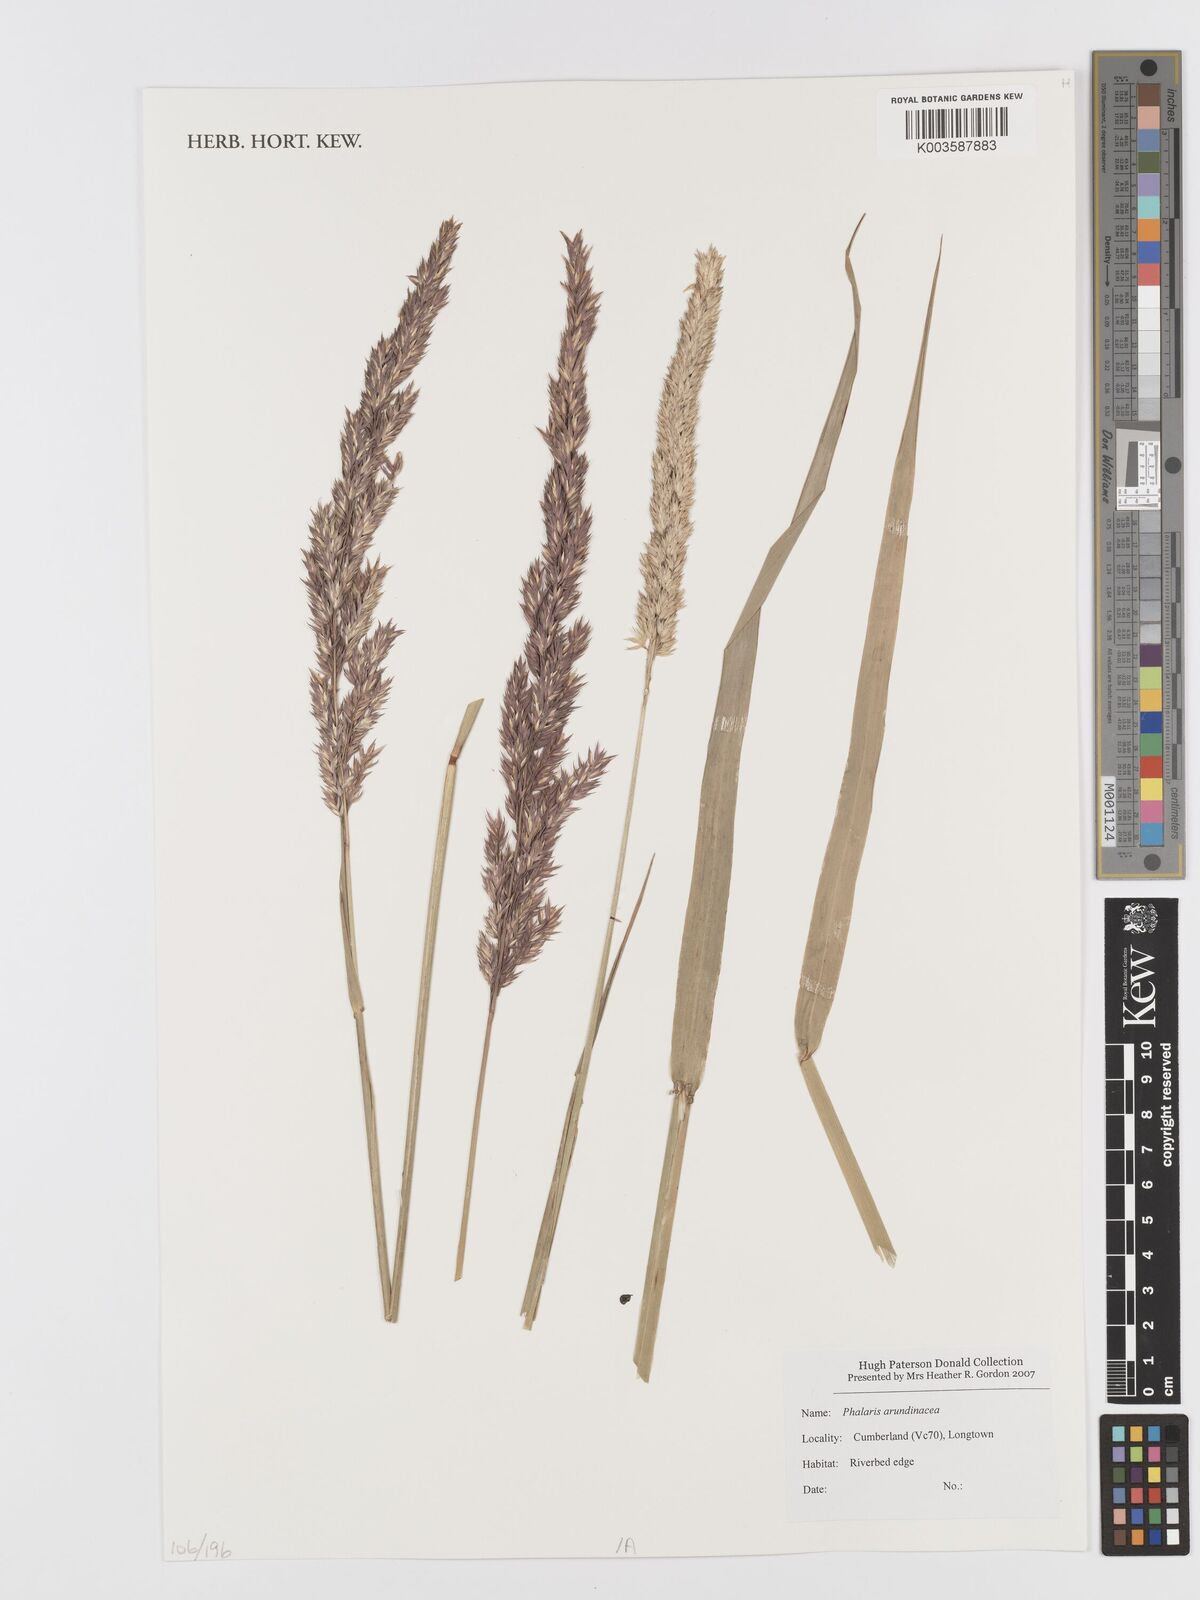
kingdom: Plantae
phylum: Tracheophyta
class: Liliopsida
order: Poales
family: Poaceae
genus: Phalaris
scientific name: Phalaris arundinacea
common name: Reed canary-grass
